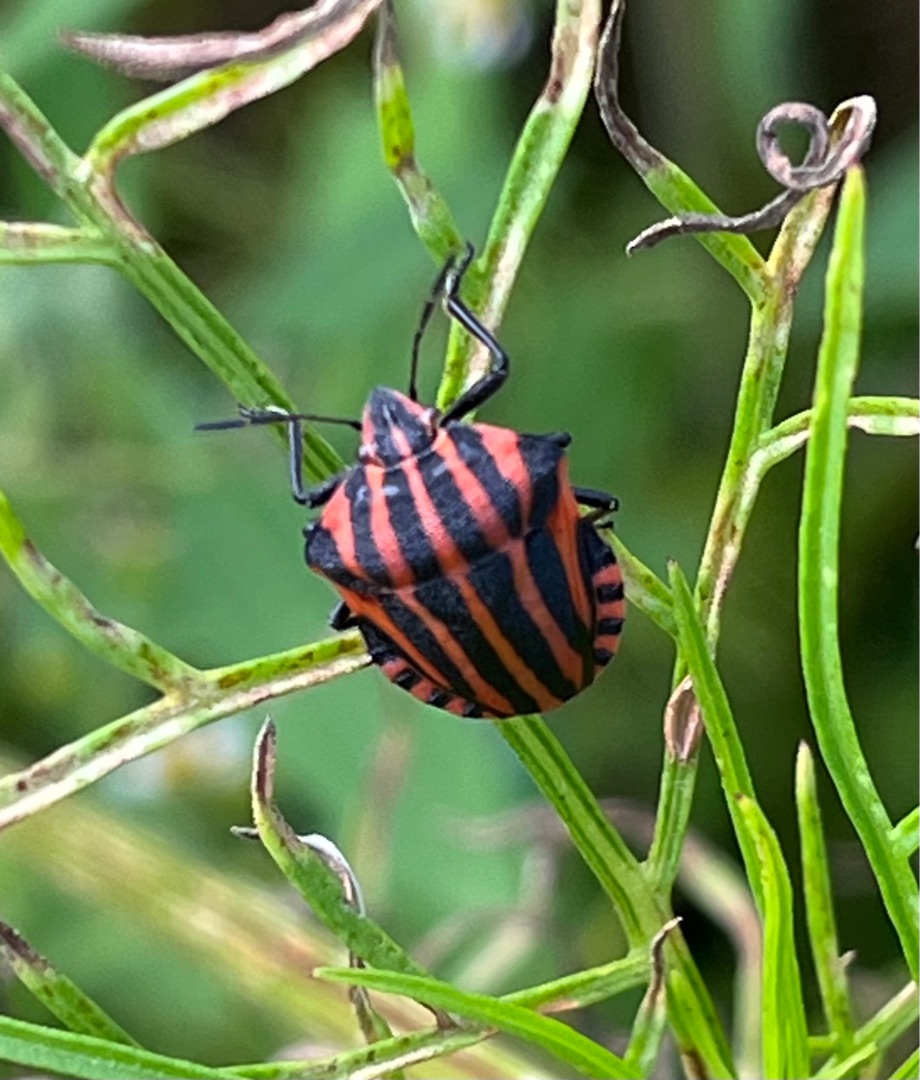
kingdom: Animalia
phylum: Arthropoda
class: Insecta
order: Hemiptera
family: Pentatomidae
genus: Graphosoma
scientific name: Graphosoma italicum
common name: Stribetæge
